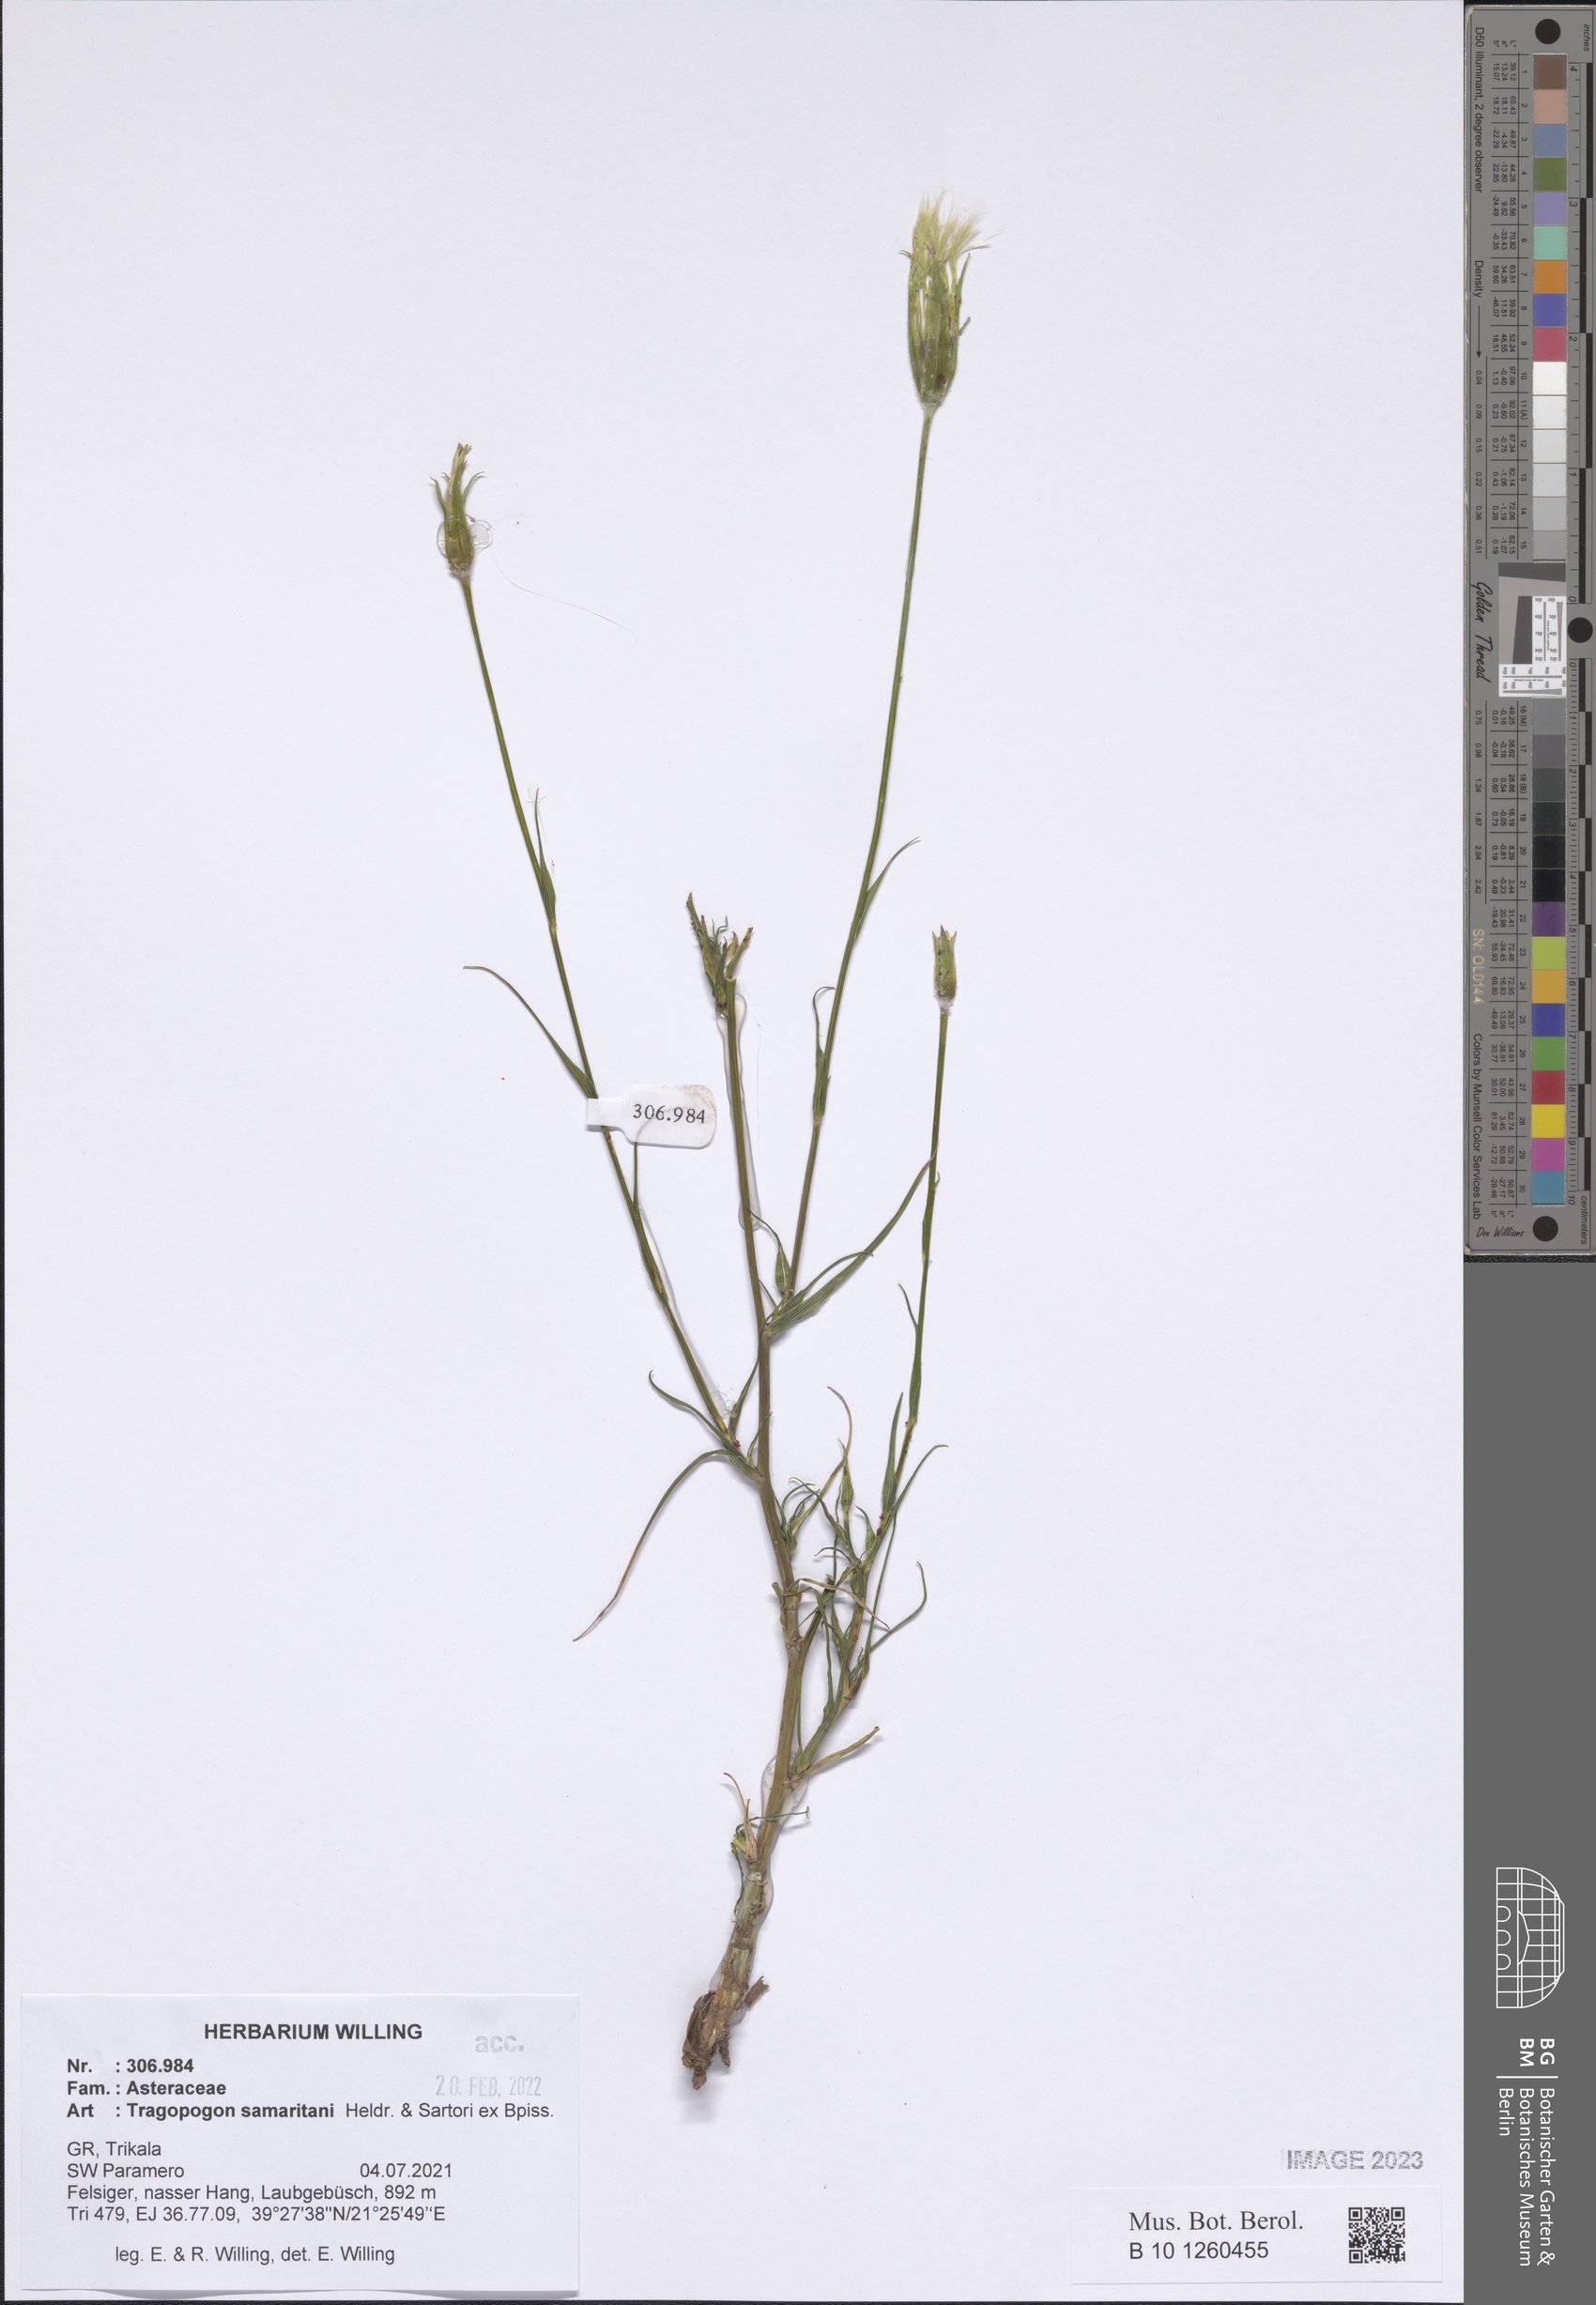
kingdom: Plantae
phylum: Tracheophyta
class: Magnoliopsida
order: Asterales
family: Asteraceae
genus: Tragopogon
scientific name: Tragopogon samaritani
